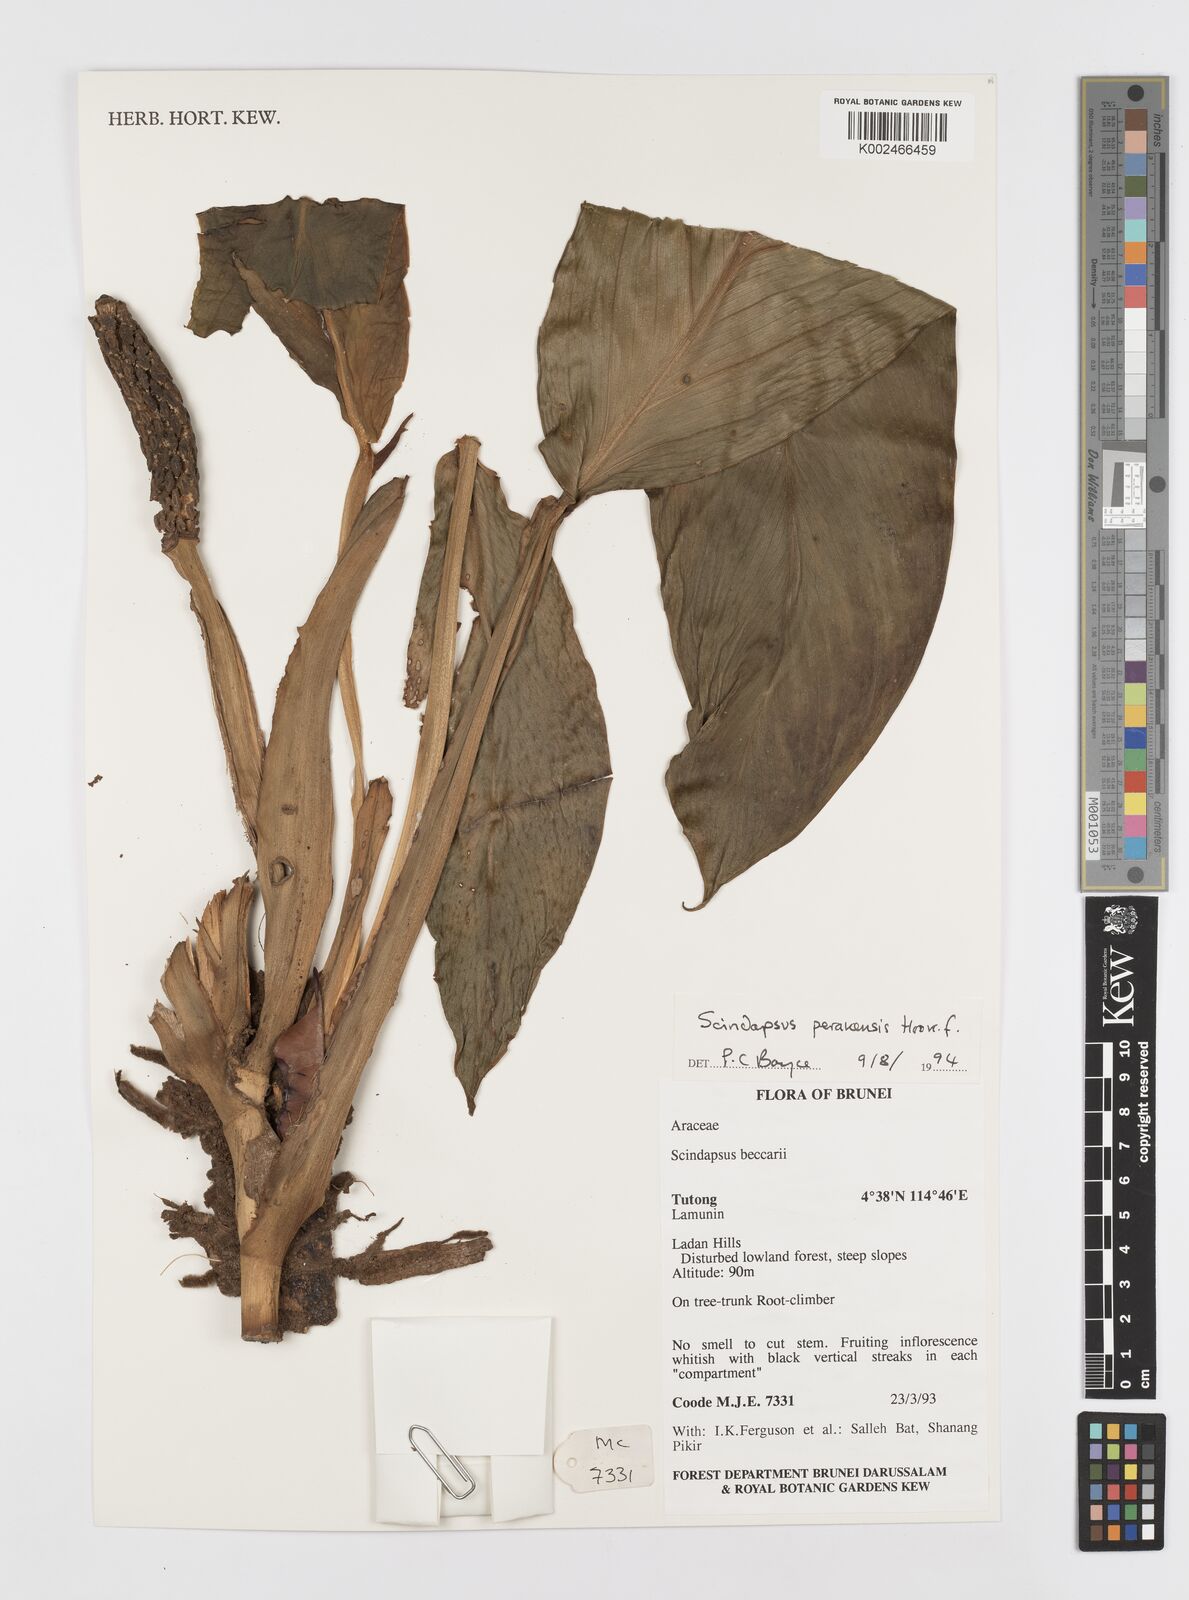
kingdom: Plantae
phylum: Tracheophyta
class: Liliopsida
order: Alismatales
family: Araceae
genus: Scindapsus
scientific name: Scindapsus longistipitatus
